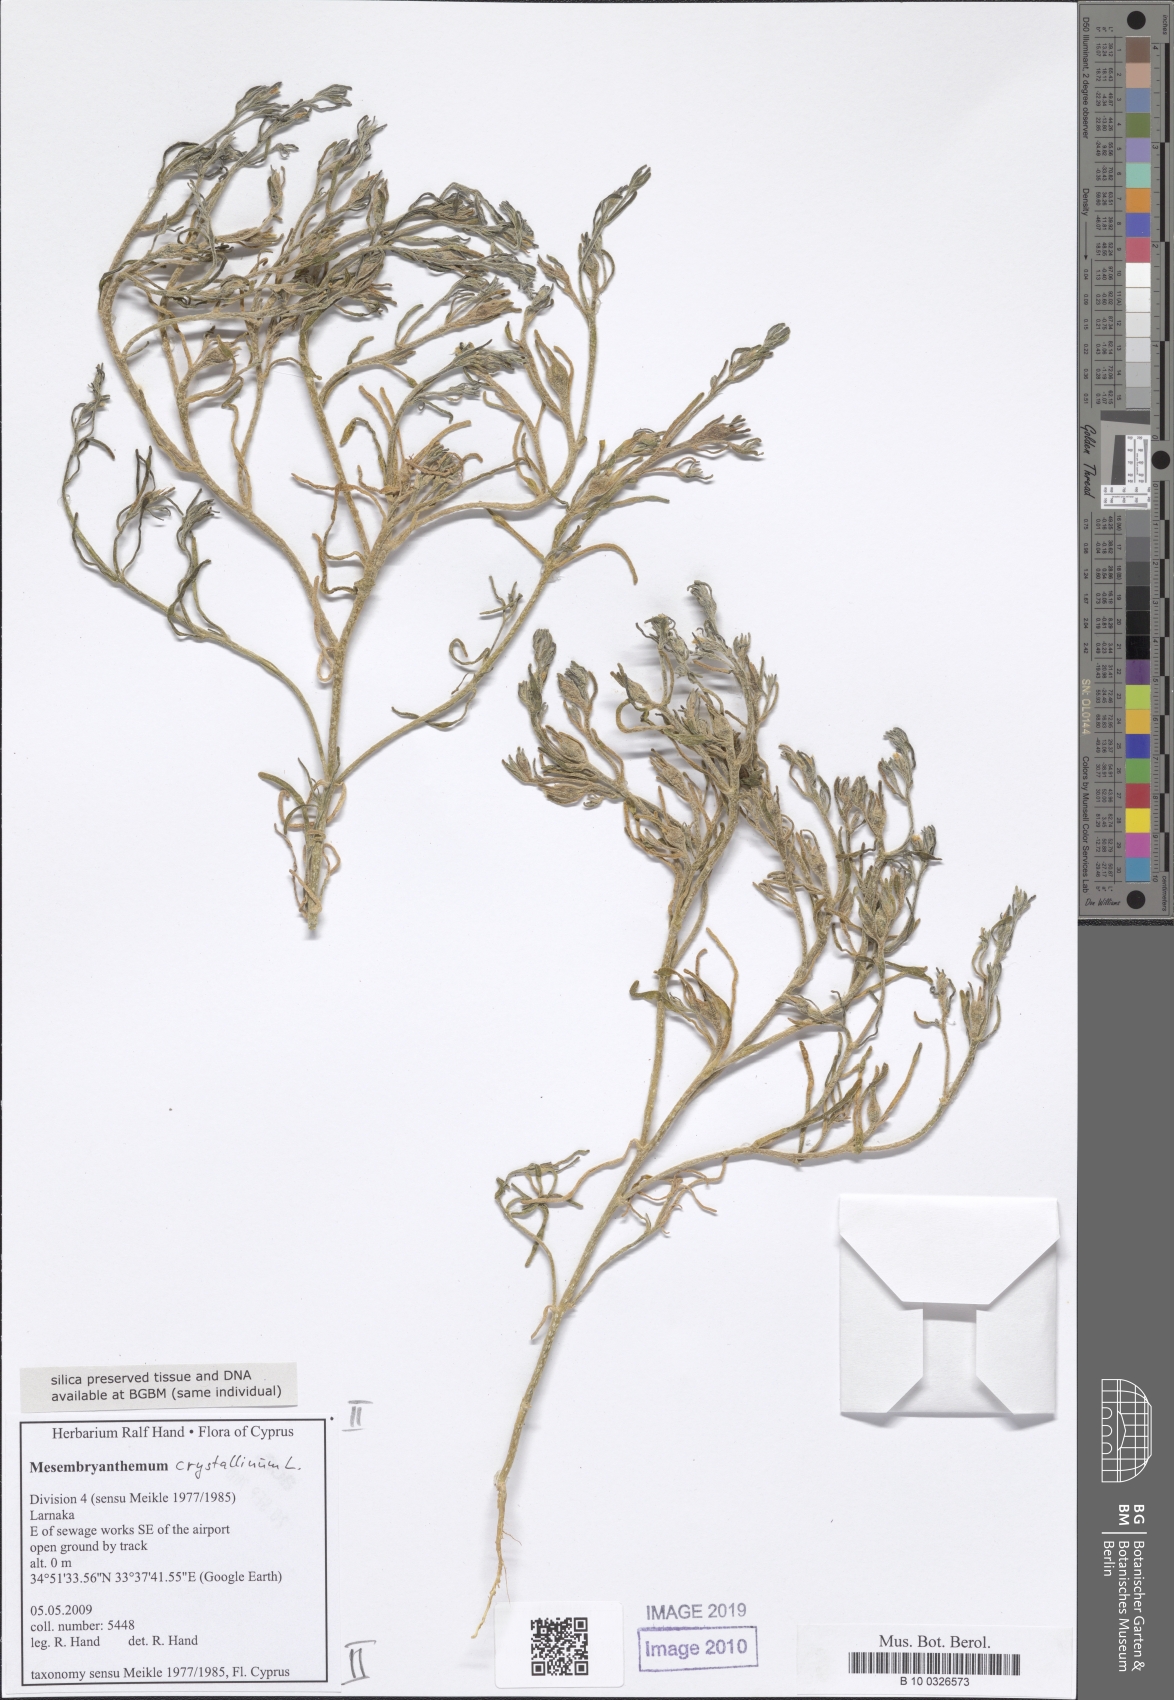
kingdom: Plantae
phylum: Tracheophyta
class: Magnoliopsida
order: Caryophyllales
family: Aizoaceae
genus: Mesembryanthemum
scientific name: Mesembryanthemum crystallinum
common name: Common iceplant
